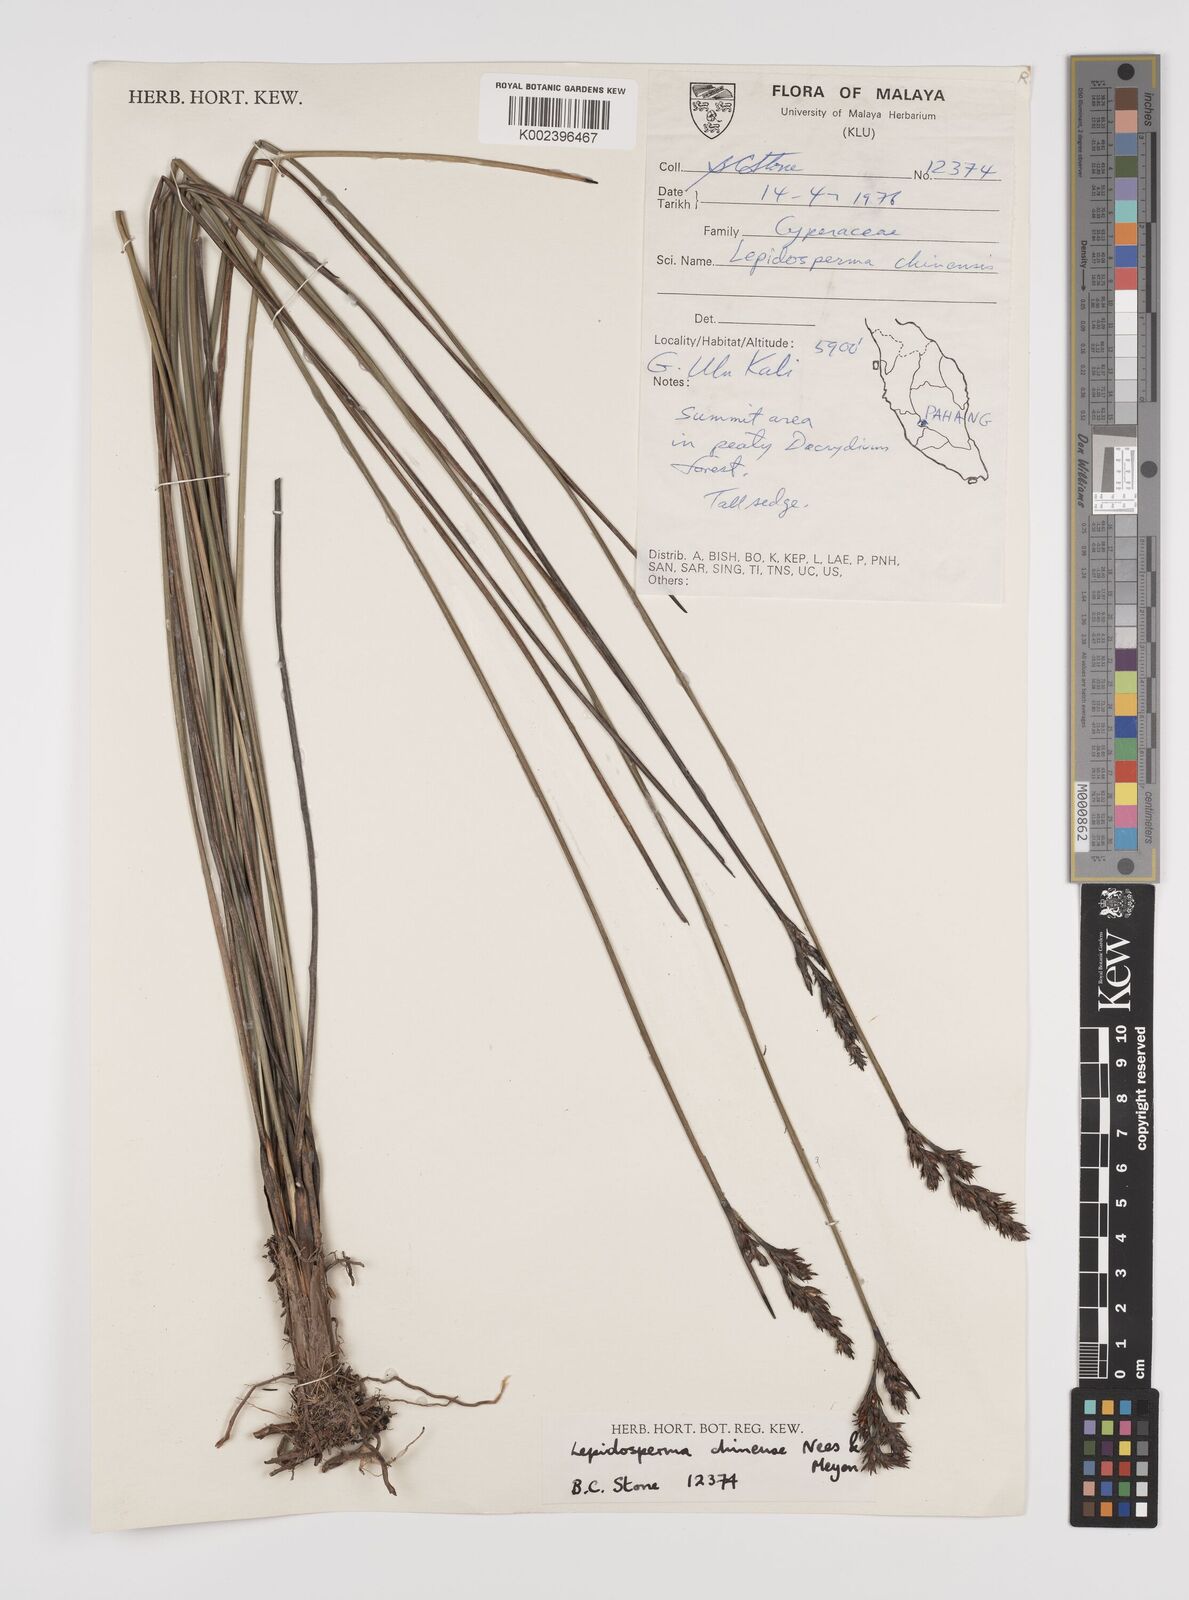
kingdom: Plantae
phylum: Tracheophyta
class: Liliopsida
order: Poales
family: Cyperaceae
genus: Lepidosperma
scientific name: Lepidosperma chinense
